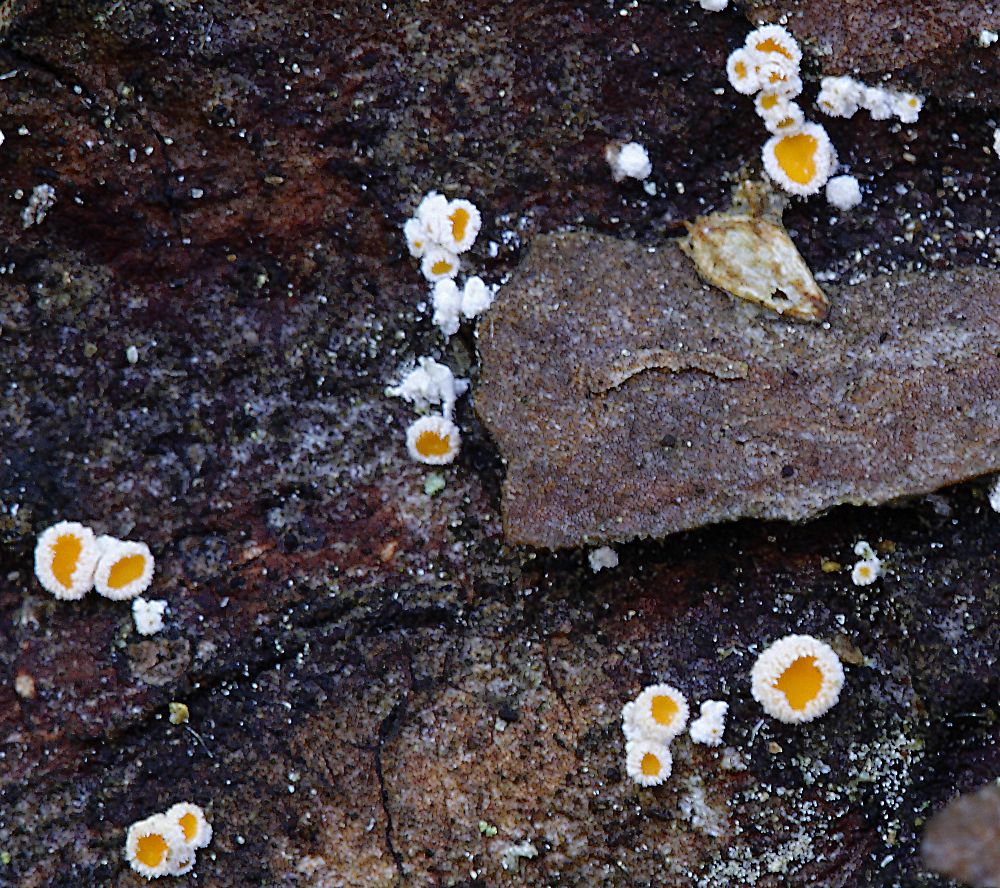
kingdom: Fungi
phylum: Ascomycota
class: Leotiomycetes
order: Helotiales
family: Lachnaceae
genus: Lachnellula
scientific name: Lachnellula calycina
